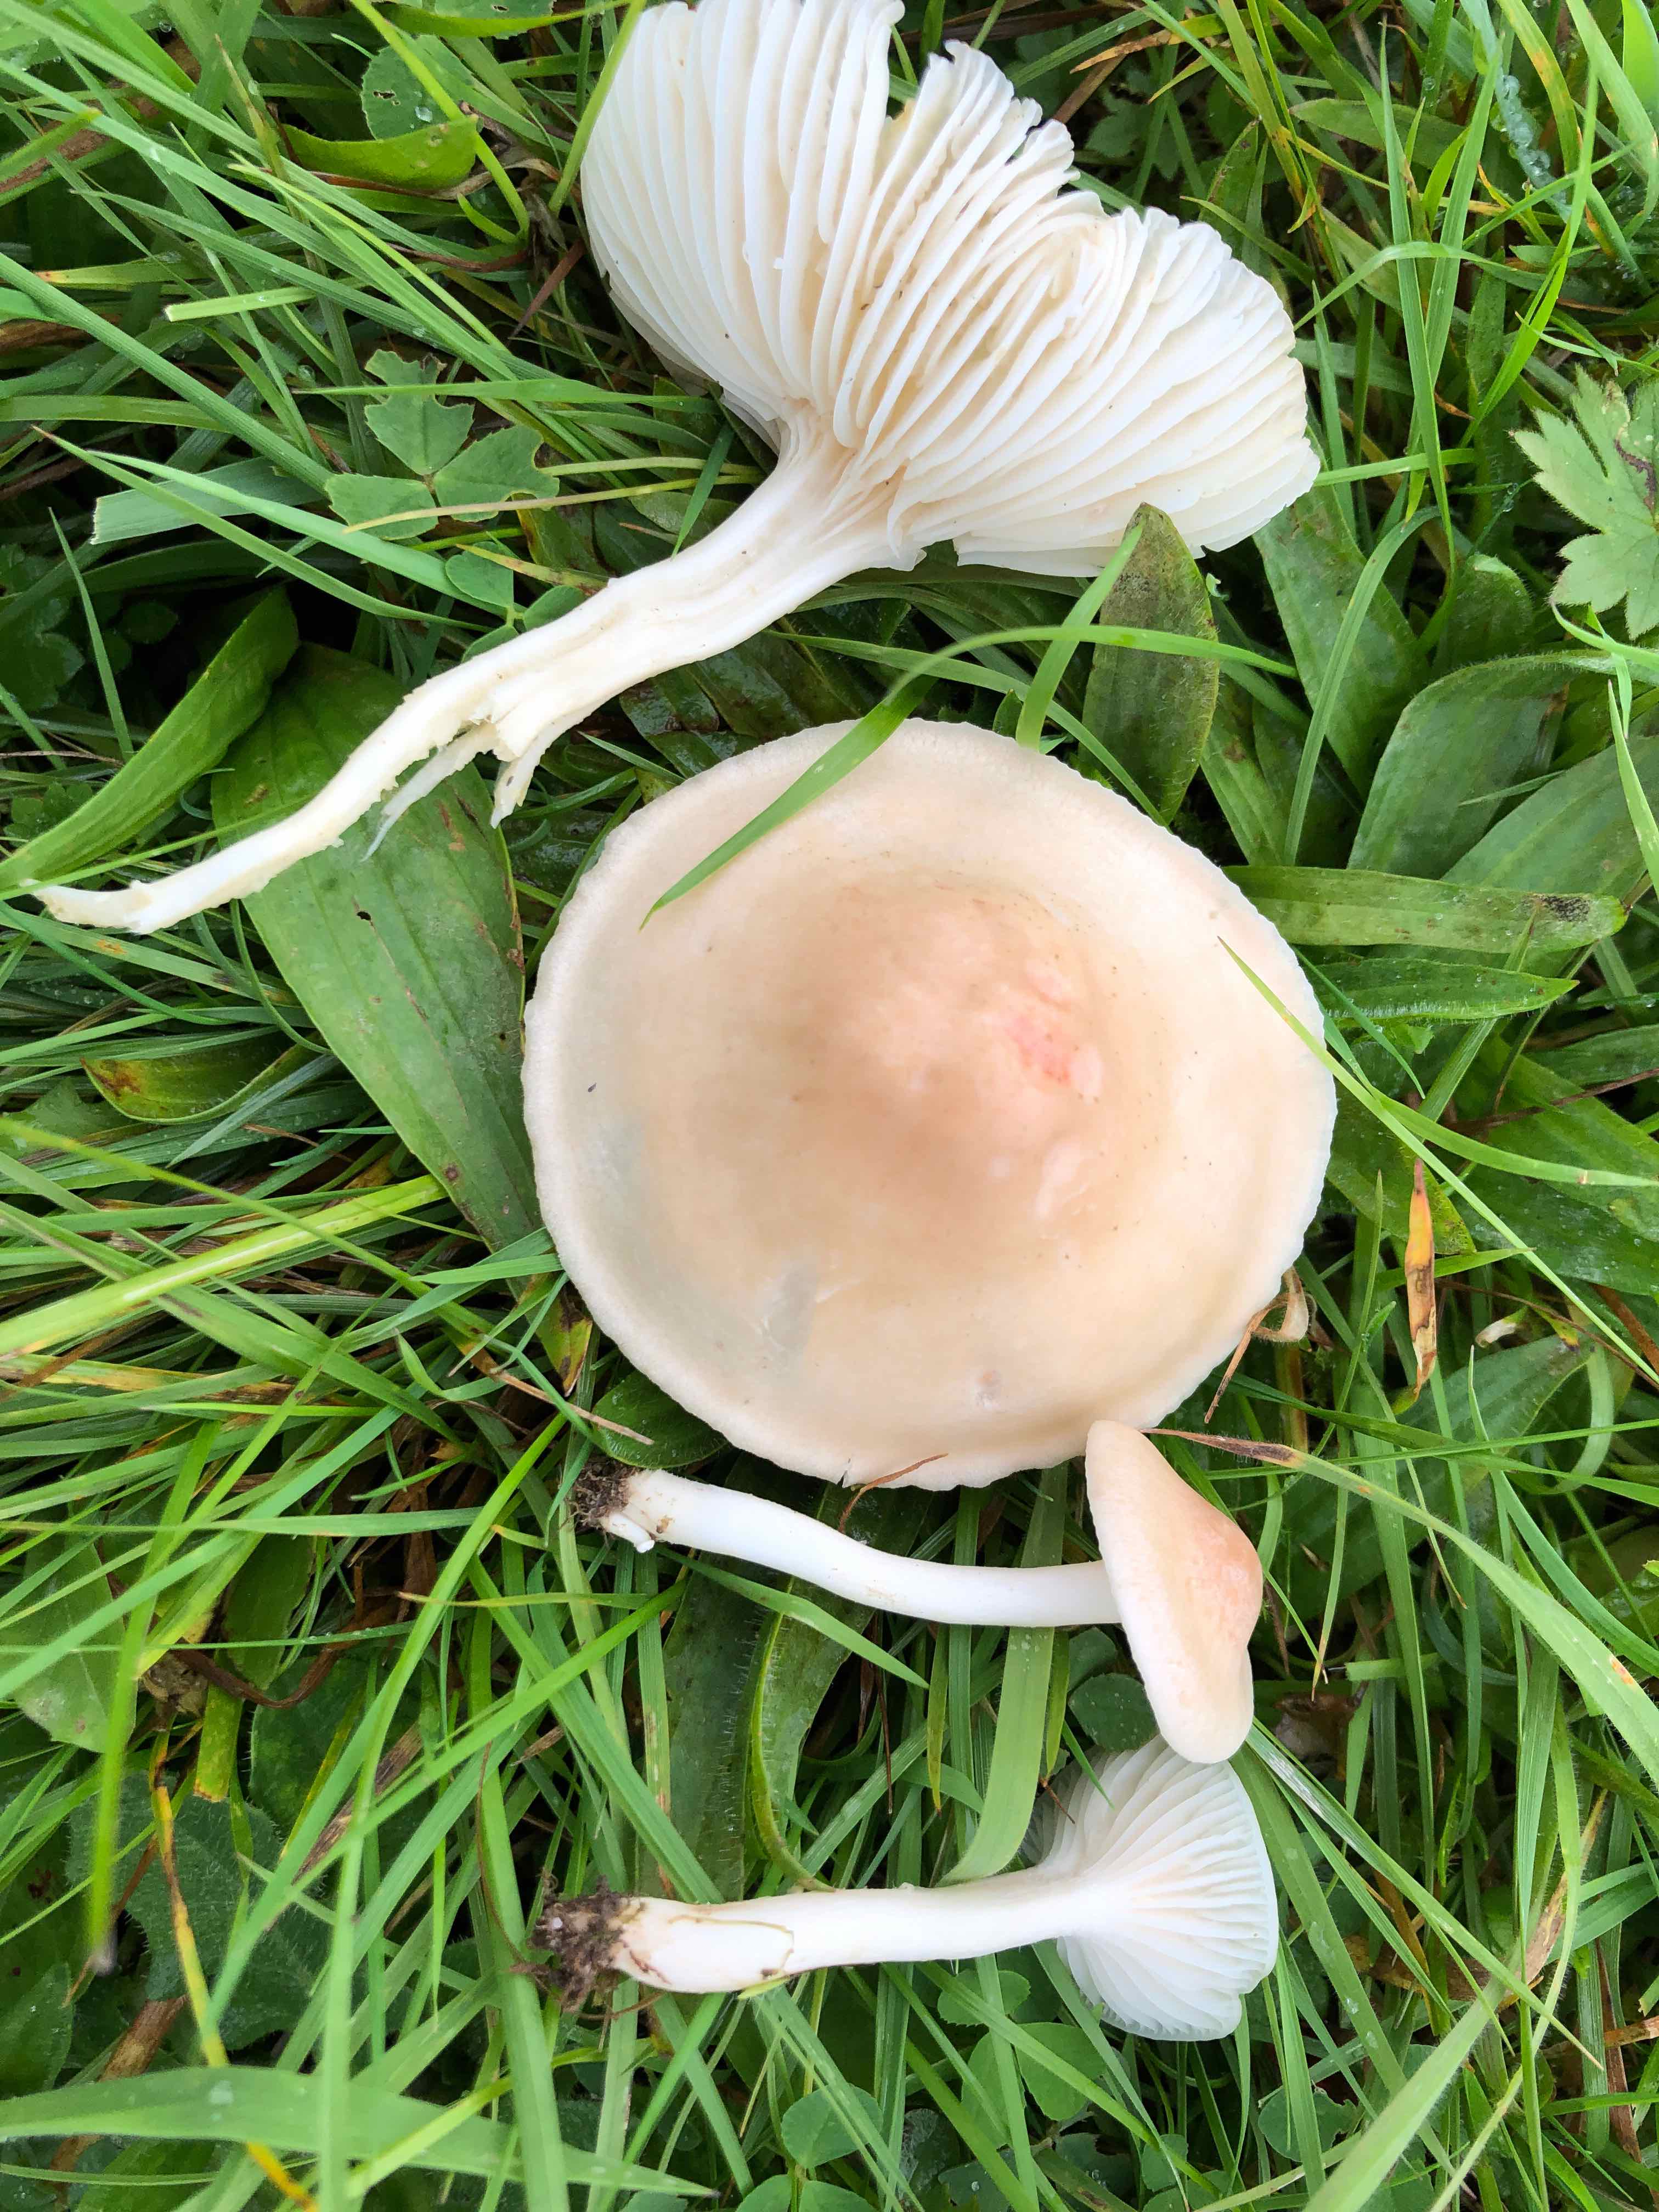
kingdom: Fungi
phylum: Basidiomycota
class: Agaricomycetes
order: Agaricales
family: Hygrophoraceae
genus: Cuphophyllus
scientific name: Cuphophyllus
